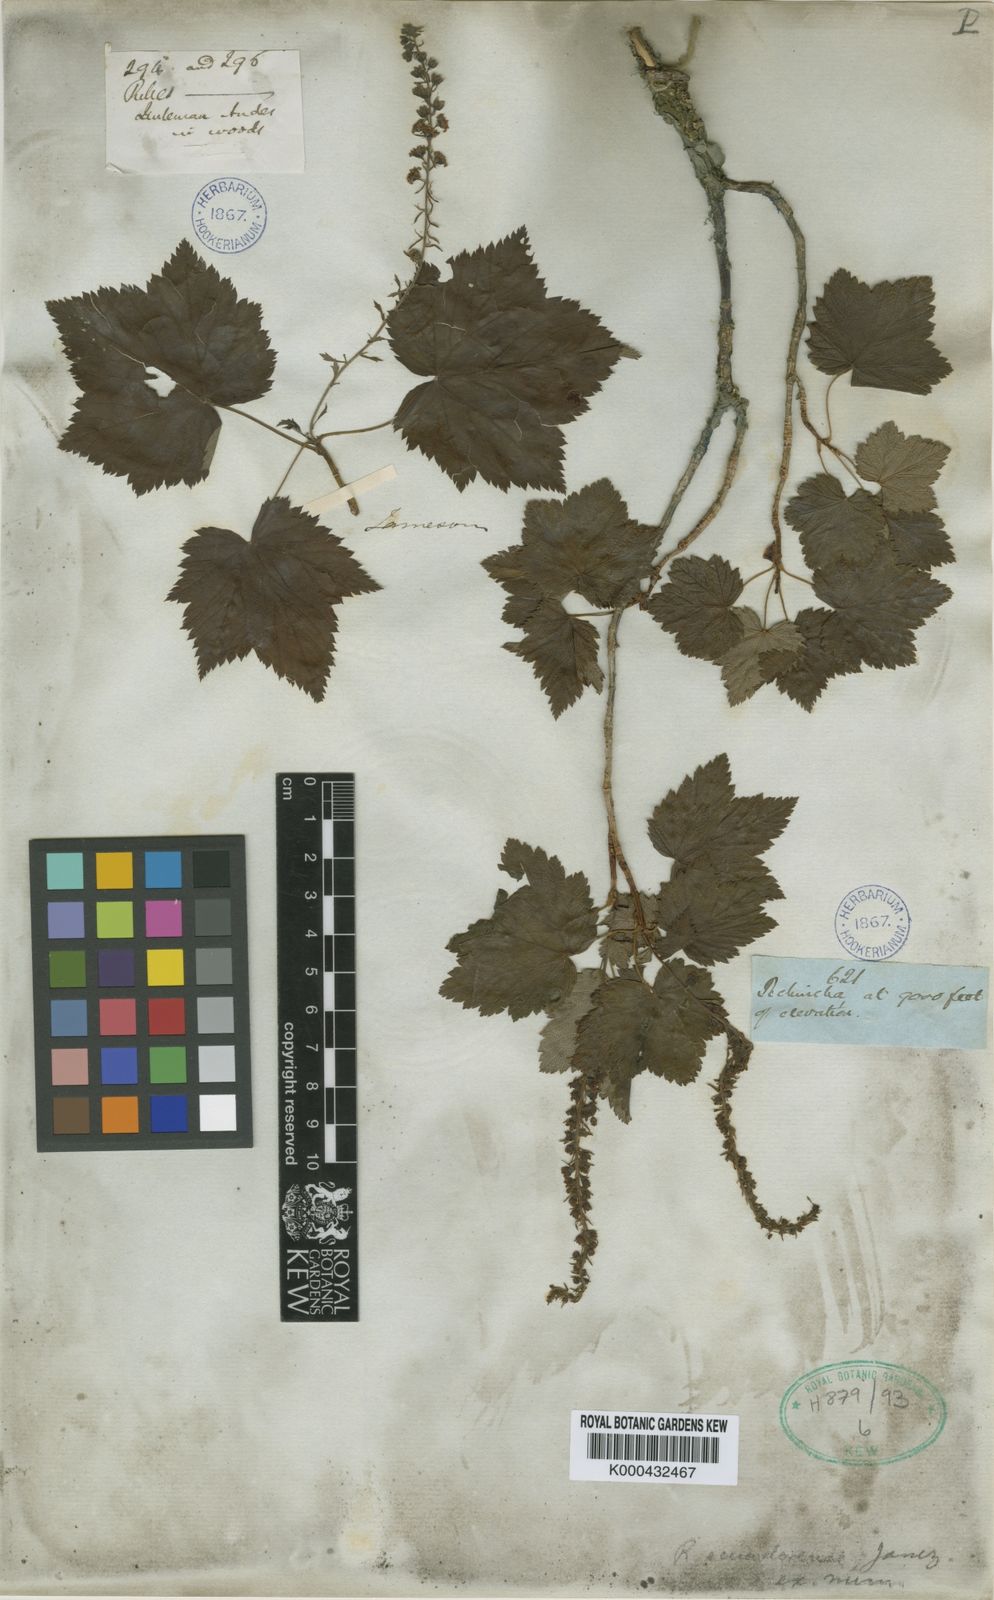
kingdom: Plantae
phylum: Tracheophyta
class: Magnoliopsida
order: Saxifragales
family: Grossulariaceae
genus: Ribes
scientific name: Ribes ecuadorense
